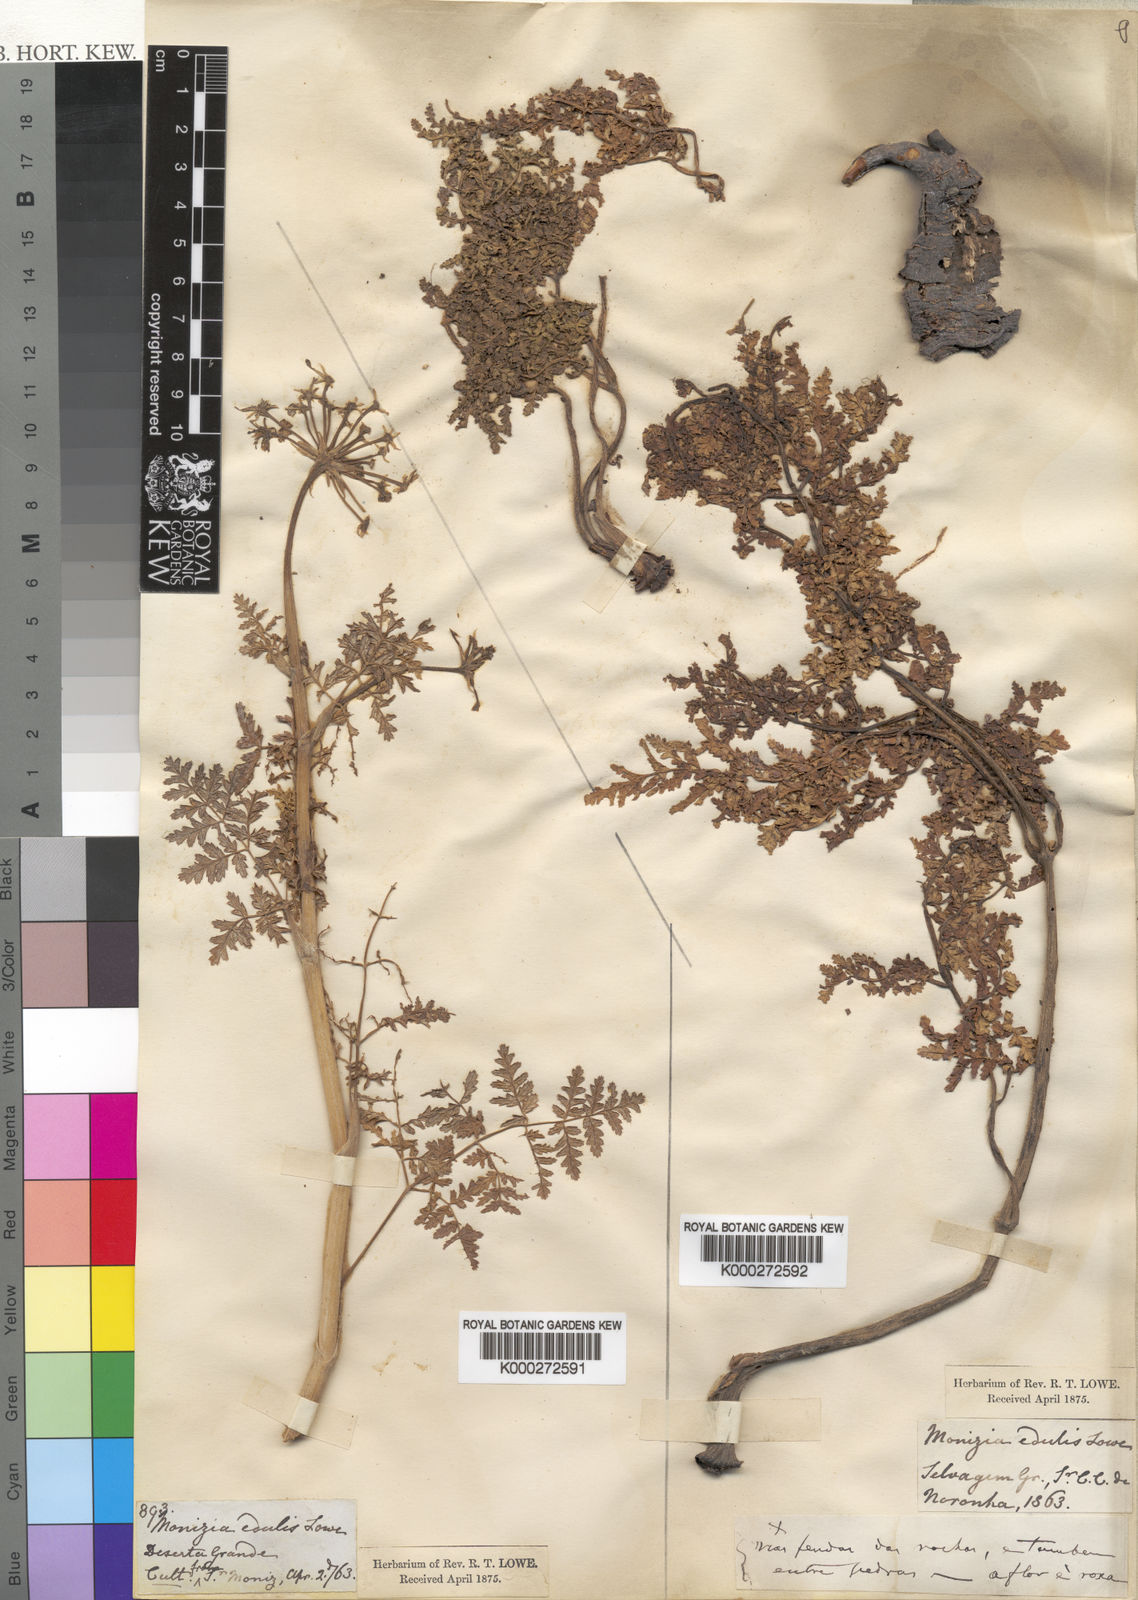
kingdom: Plantae
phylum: Tracheophyta
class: Magnoliopsida
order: Apiales
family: Apiaceae
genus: Daucus
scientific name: Daucus edulis
